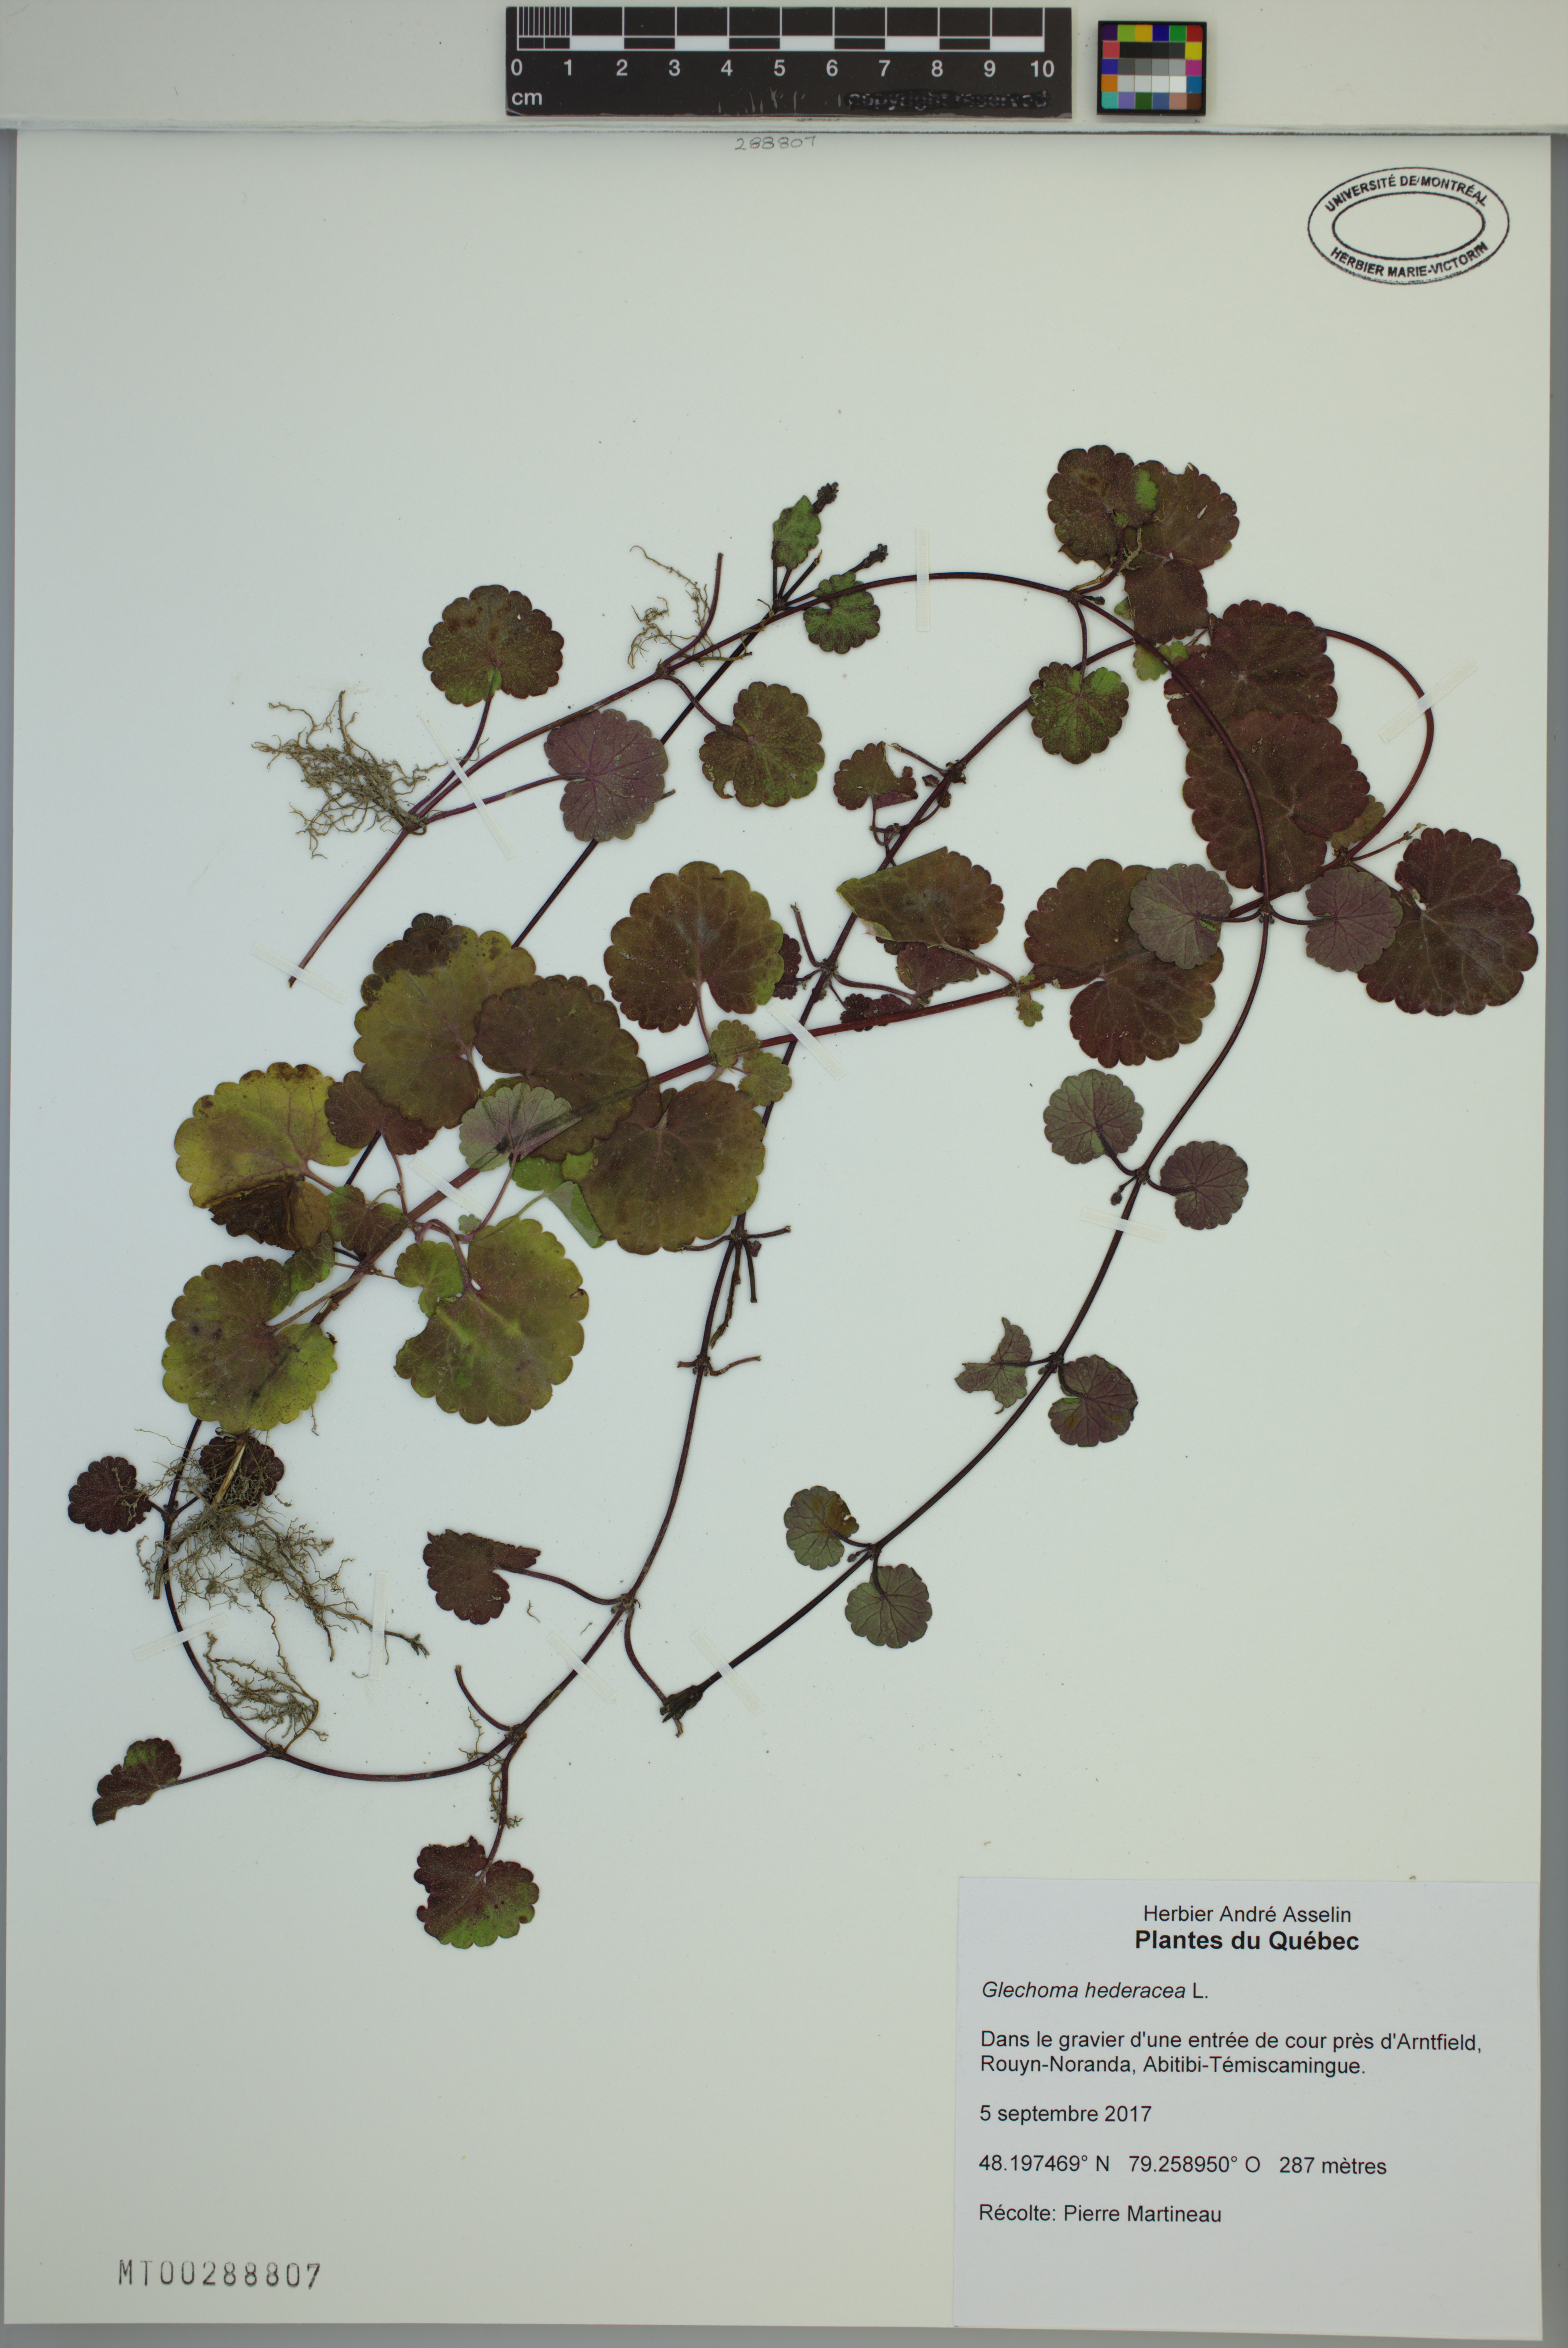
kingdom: Plantae
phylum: Tracheophyta
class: Magnoliopsida
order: Lamiales
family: Lamiaceae
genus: Glechoma
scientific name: Glechoma hederacea
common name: Ground ivy
